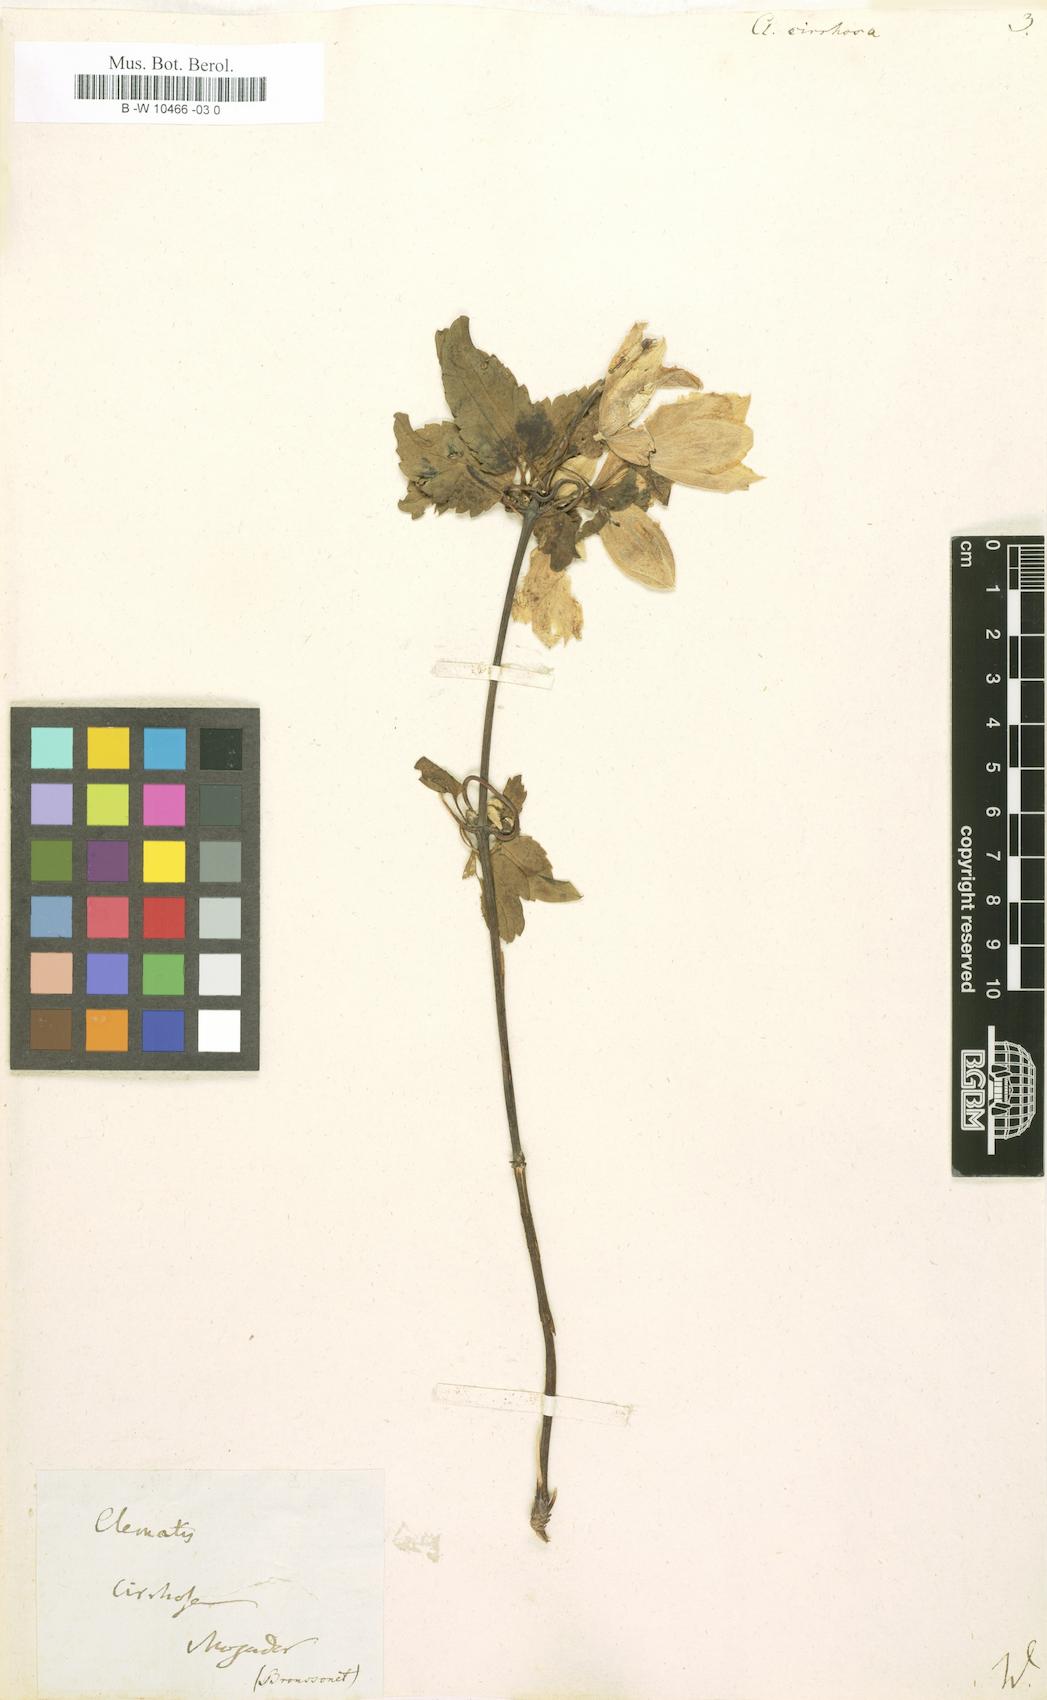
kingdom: Plantae
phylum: Tracheophyta
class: Magnoliopsida
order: Ranunculales
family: Ranunculaceae
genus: Clematis
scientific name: Clematis cirrhosa
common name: Early virgin's-bower
